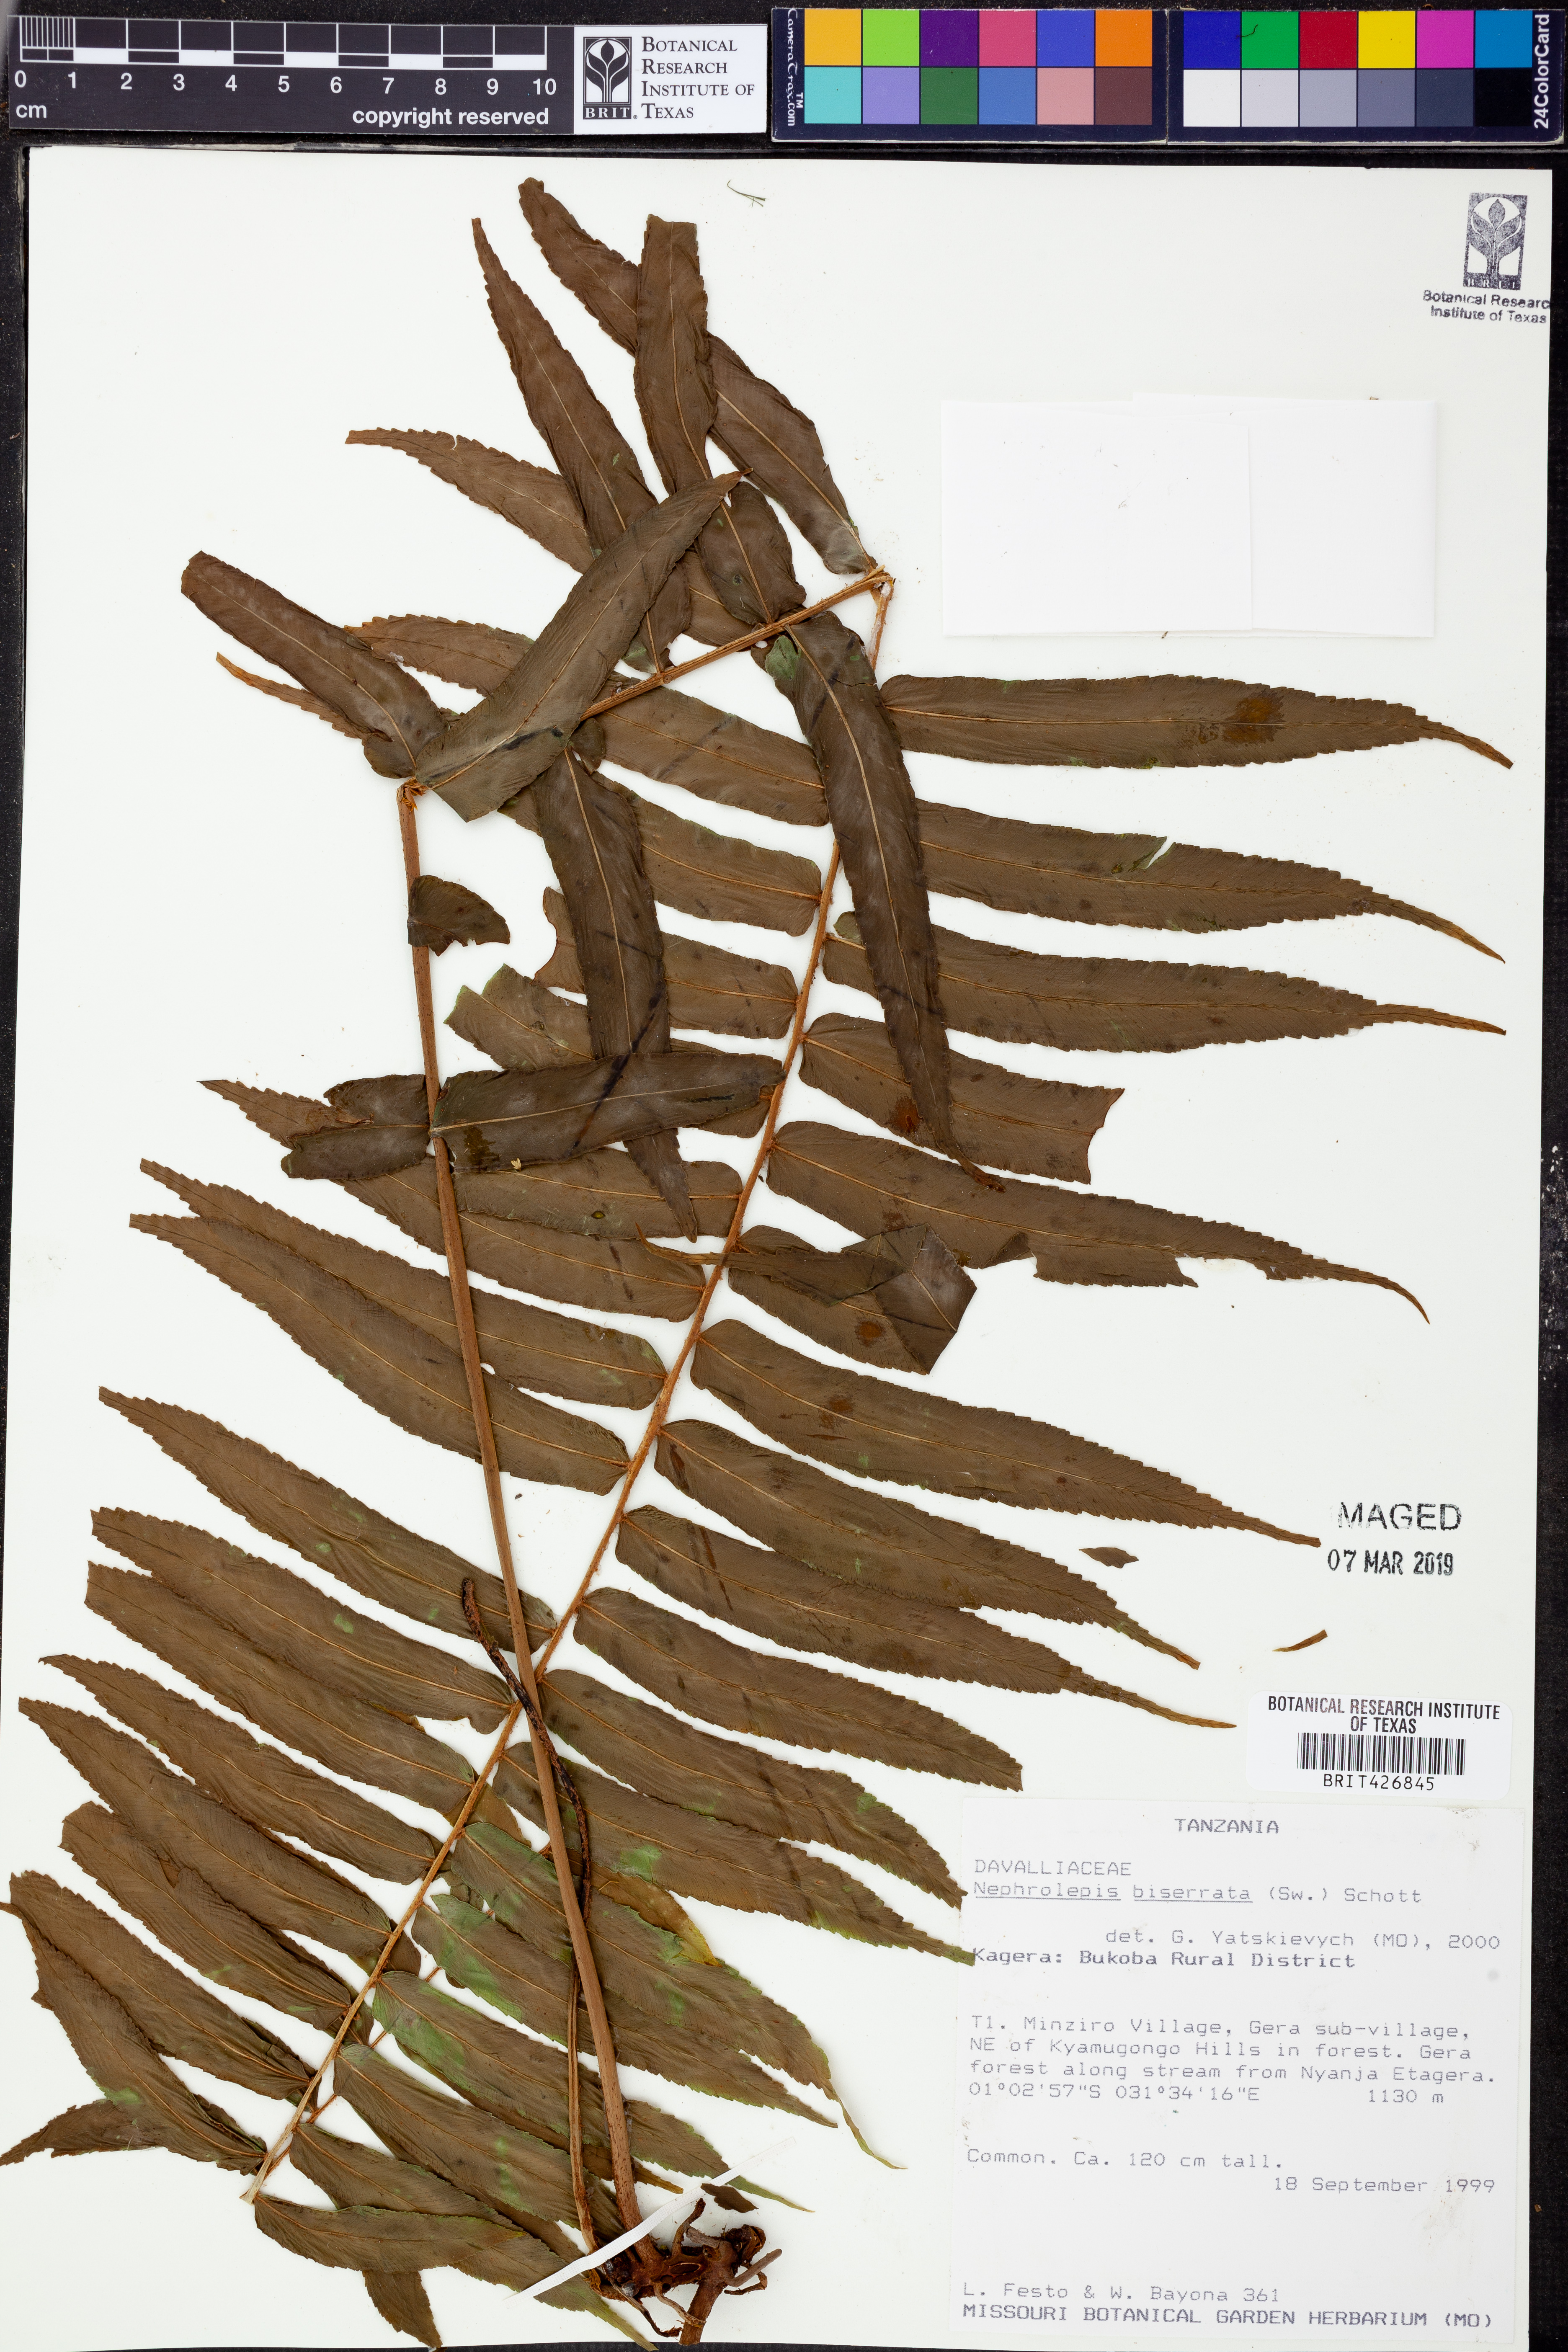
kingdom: Plantae
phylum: Tracheophyta
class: Polypodiopsida
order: Polypodiales
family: Nephrolepidaceae
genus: Nephrolepis
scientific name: Nephrolepis biserrata
